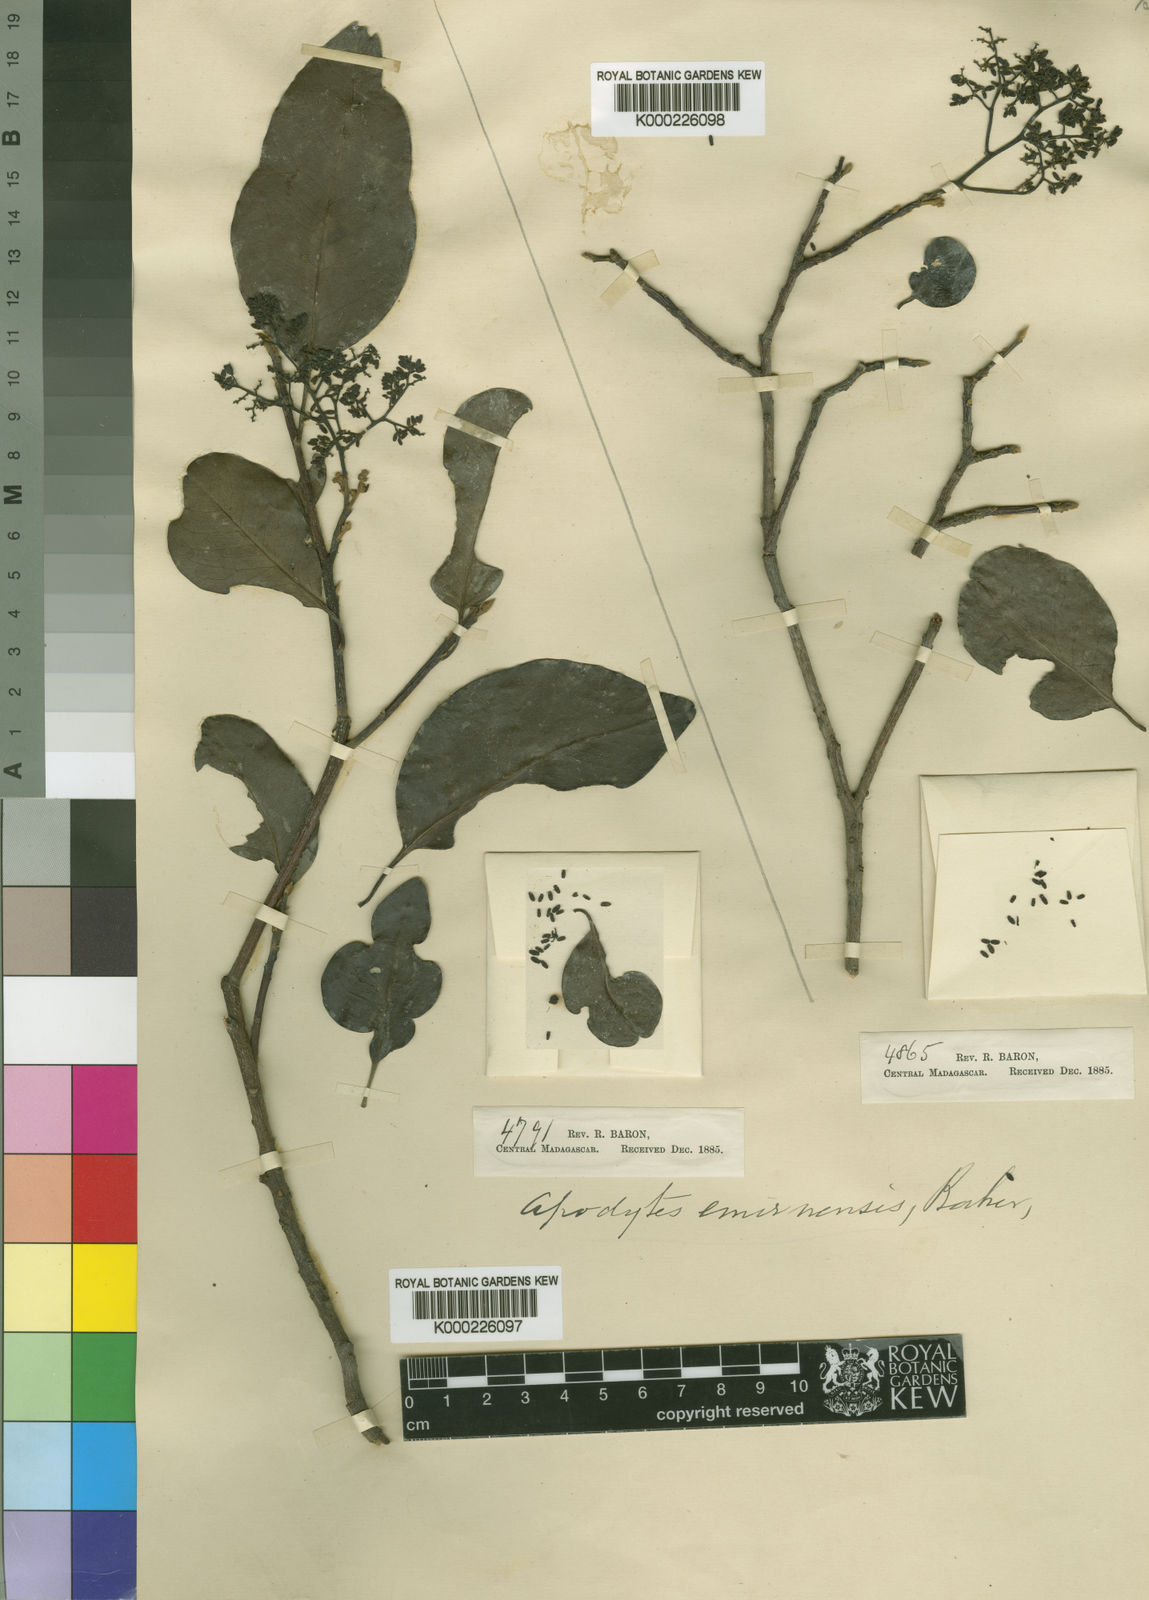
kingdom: Plantae
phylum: Tracheophyta
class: Magnoliopsida
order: Metteniusales
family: Metteniusaceae
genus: Apodytes
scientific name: Apodytes dimidiata
